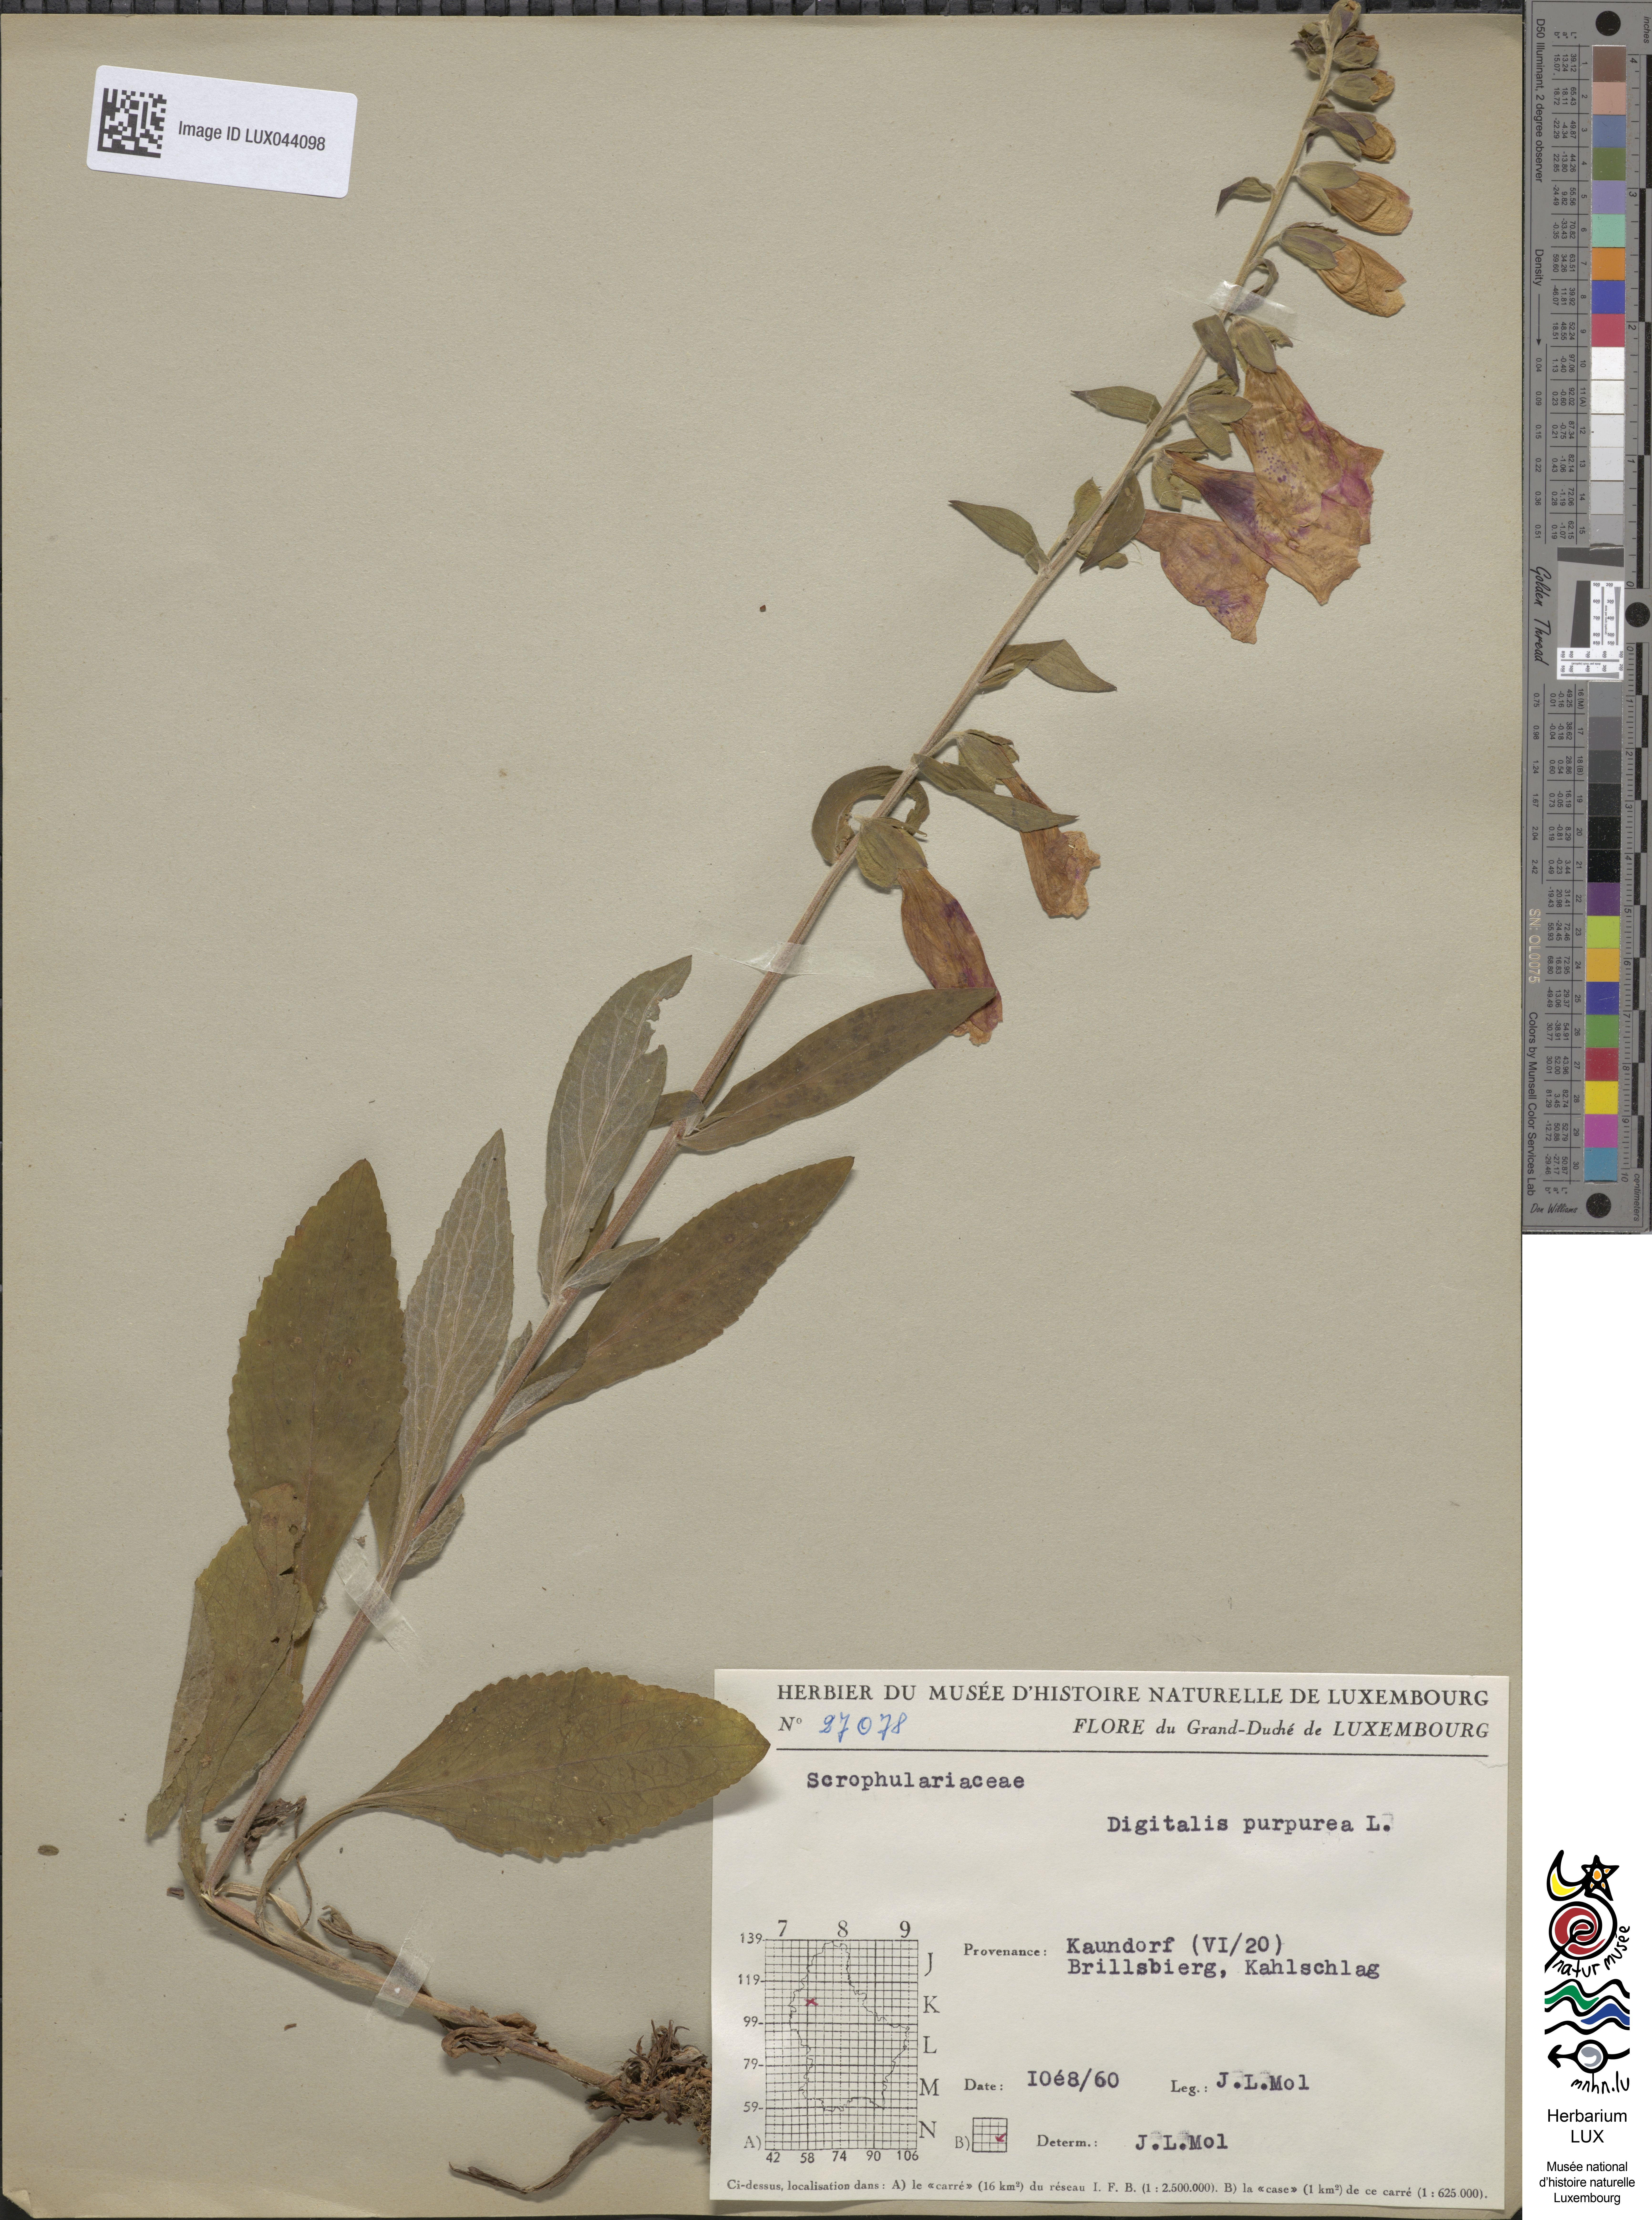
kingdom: Plantae
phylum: Tracheophyta
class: Magnoliopsida
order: Lamiales
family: Plantaginaceae
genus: Digitalis
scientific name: Digitalis purpurea
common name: Foxglove
